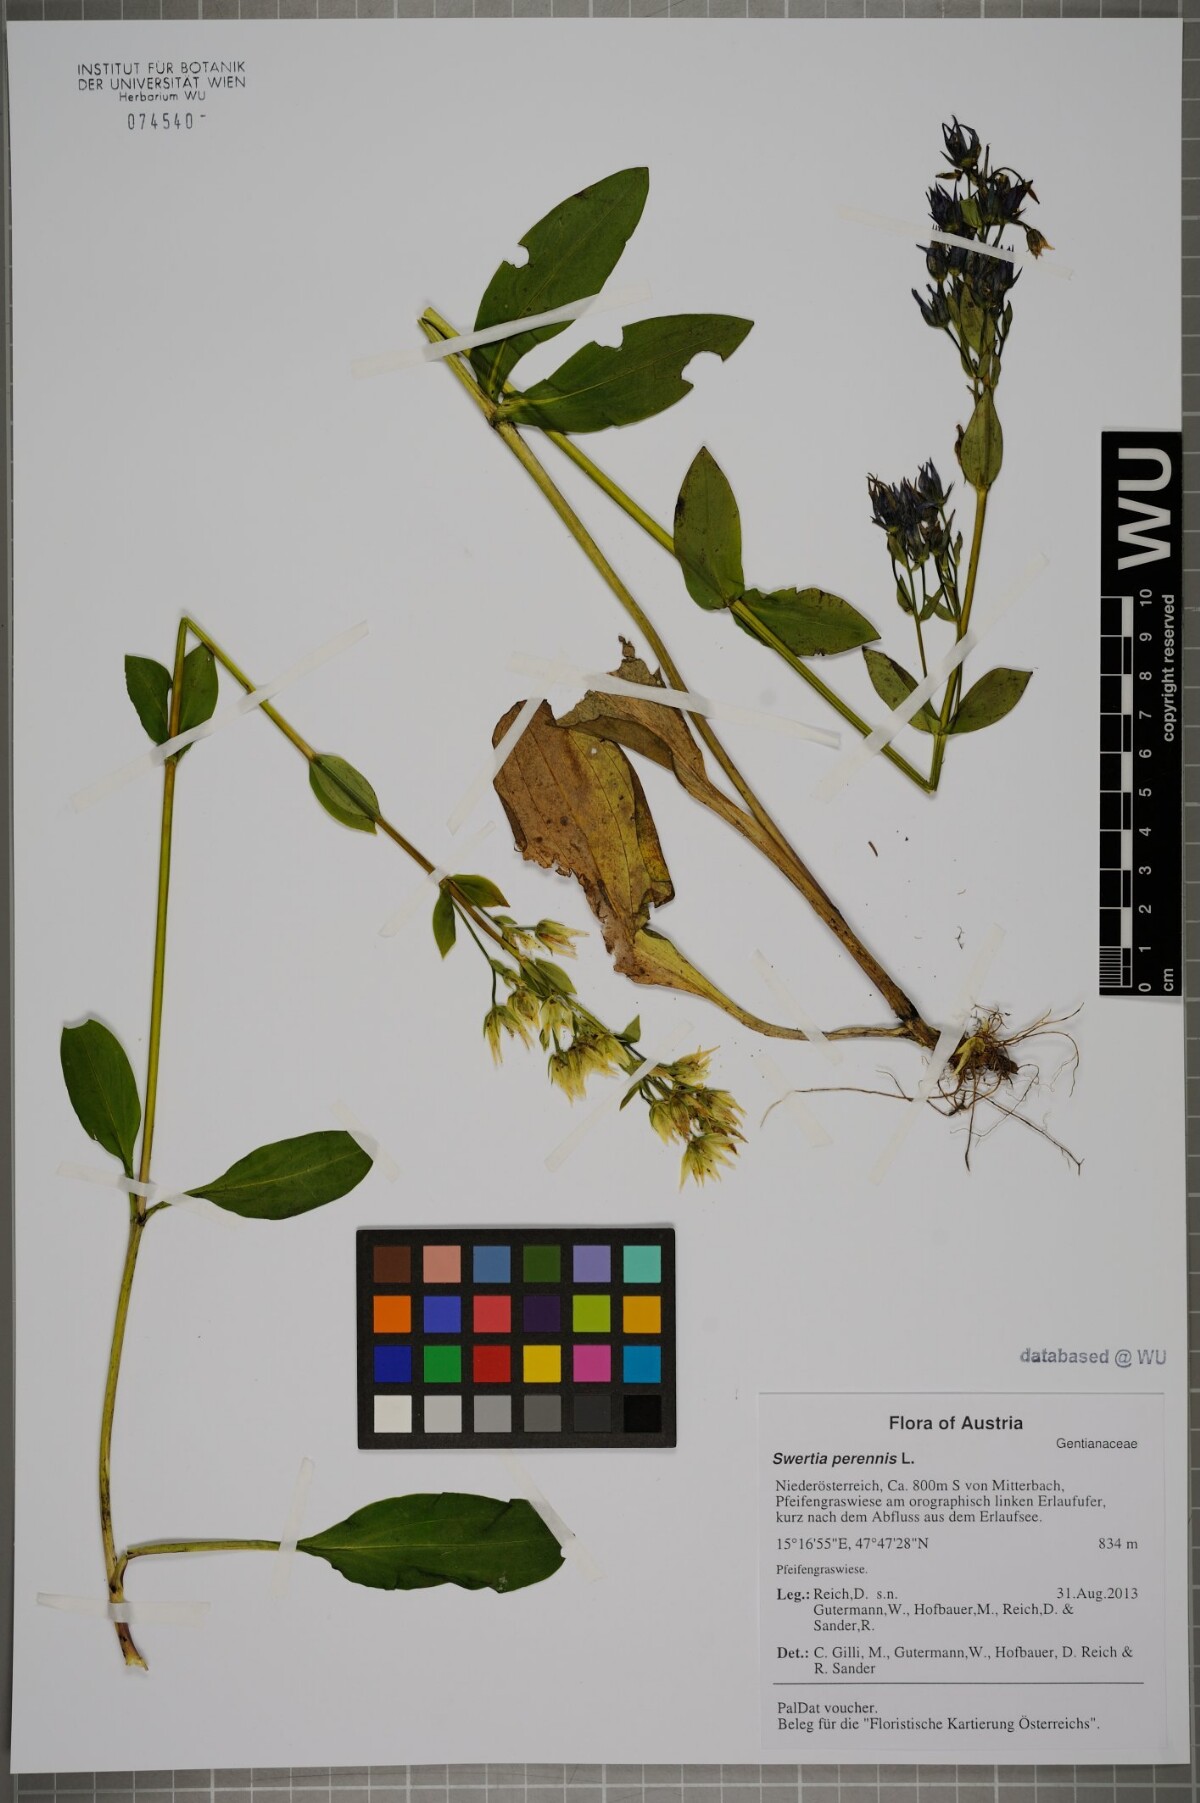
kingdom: Plantae
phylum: Tracheophyta
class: Magnoliopsida
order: Gentianales
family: Gentianaceae
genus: Swertia
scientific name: Swertia perennis
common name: Alpine bog swertia
